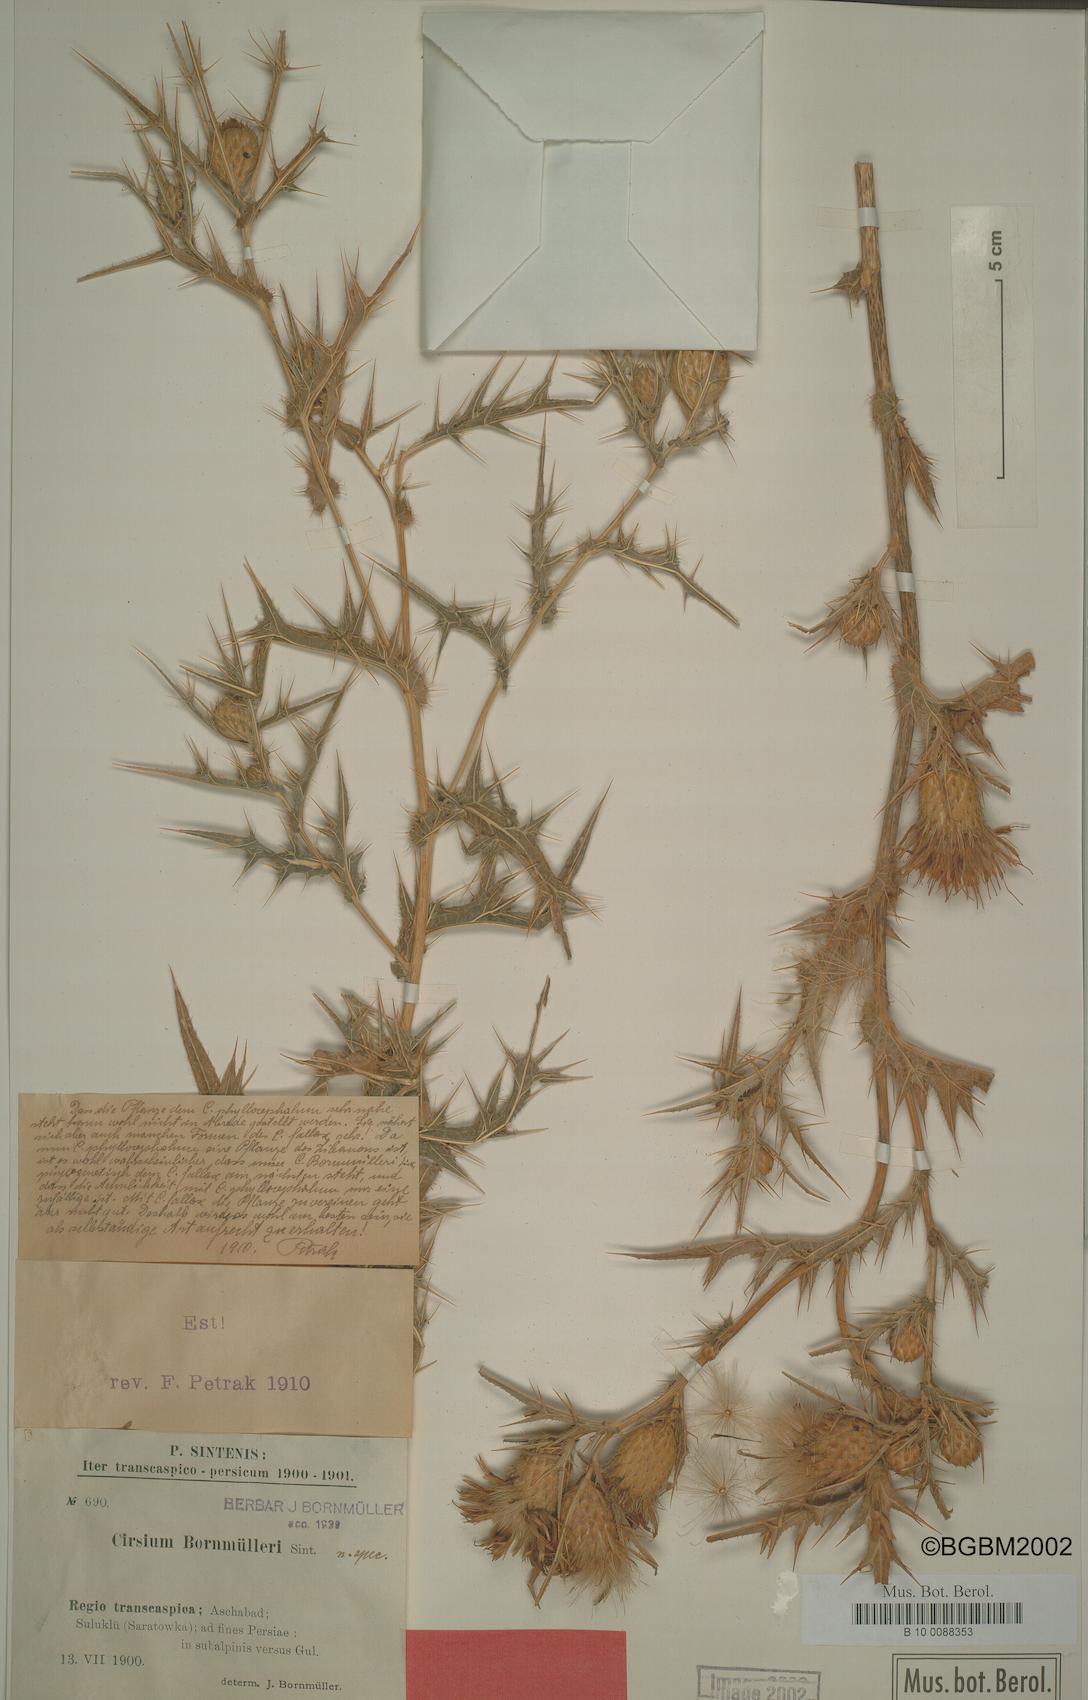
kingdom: Plantae
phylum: Tracheophyta
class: Magnoliopsida
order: Asterales
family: Asteraceae
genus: Lophiolepis
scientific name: Lophiolepis bornmuelleri
